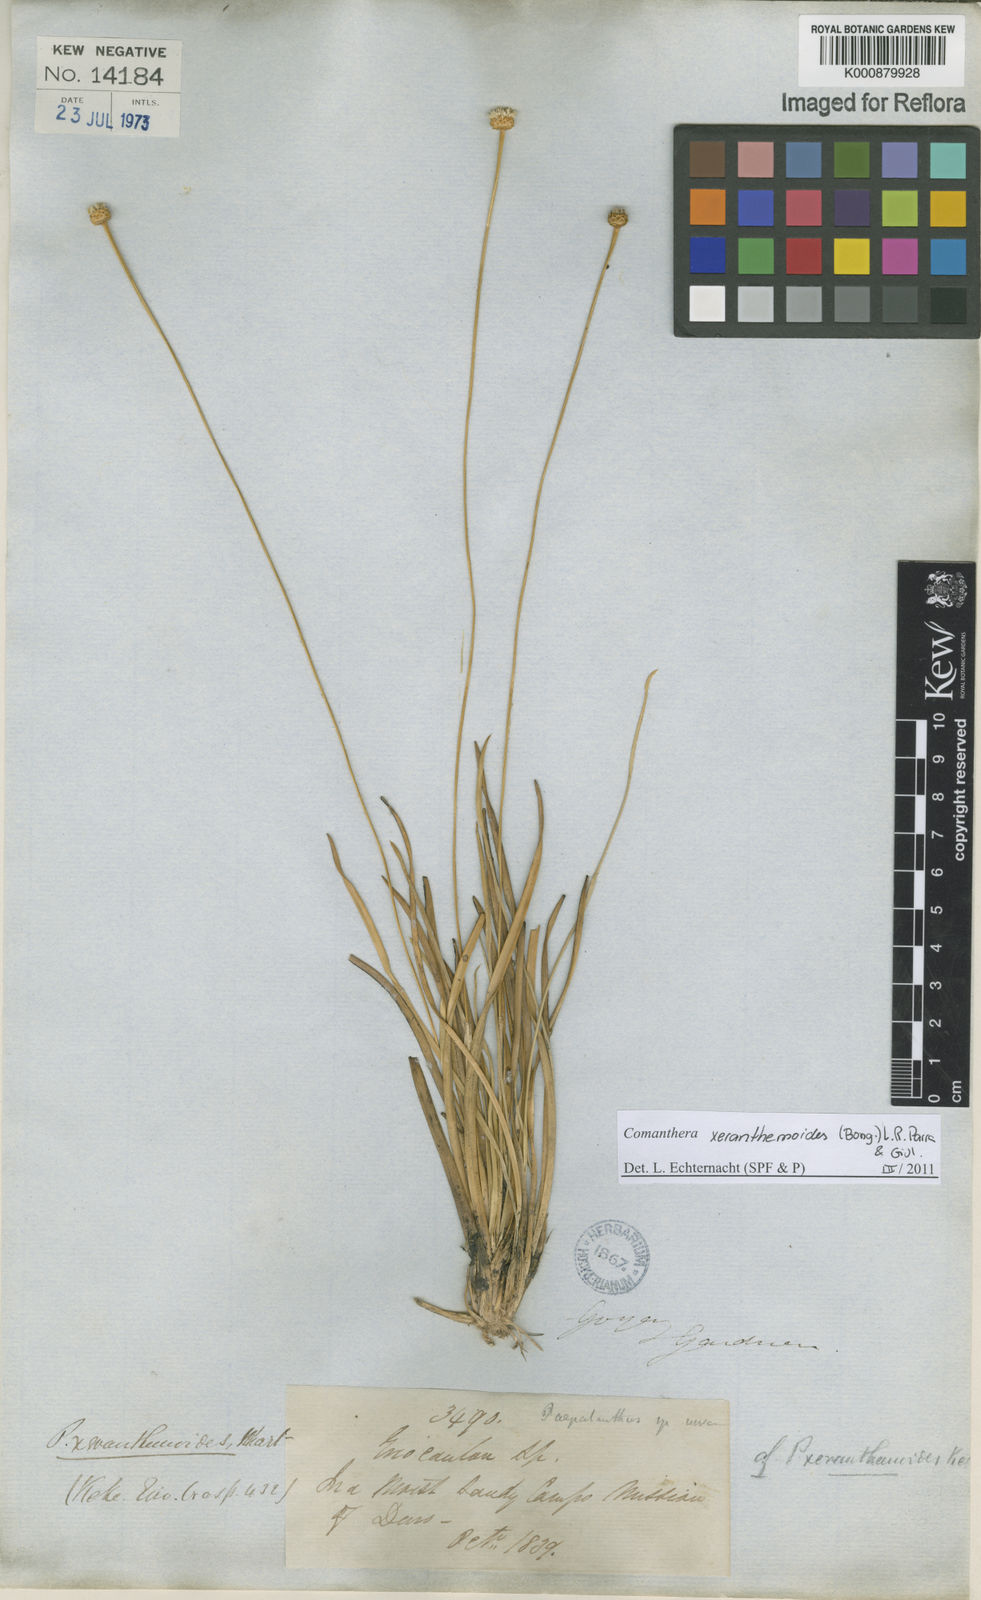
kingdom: Plantae
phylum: Tracheophyta
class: Liliopsida
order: Poales
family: Eriocaulaceae
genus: Comanthera
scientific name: Comanthera xeranthemoides
